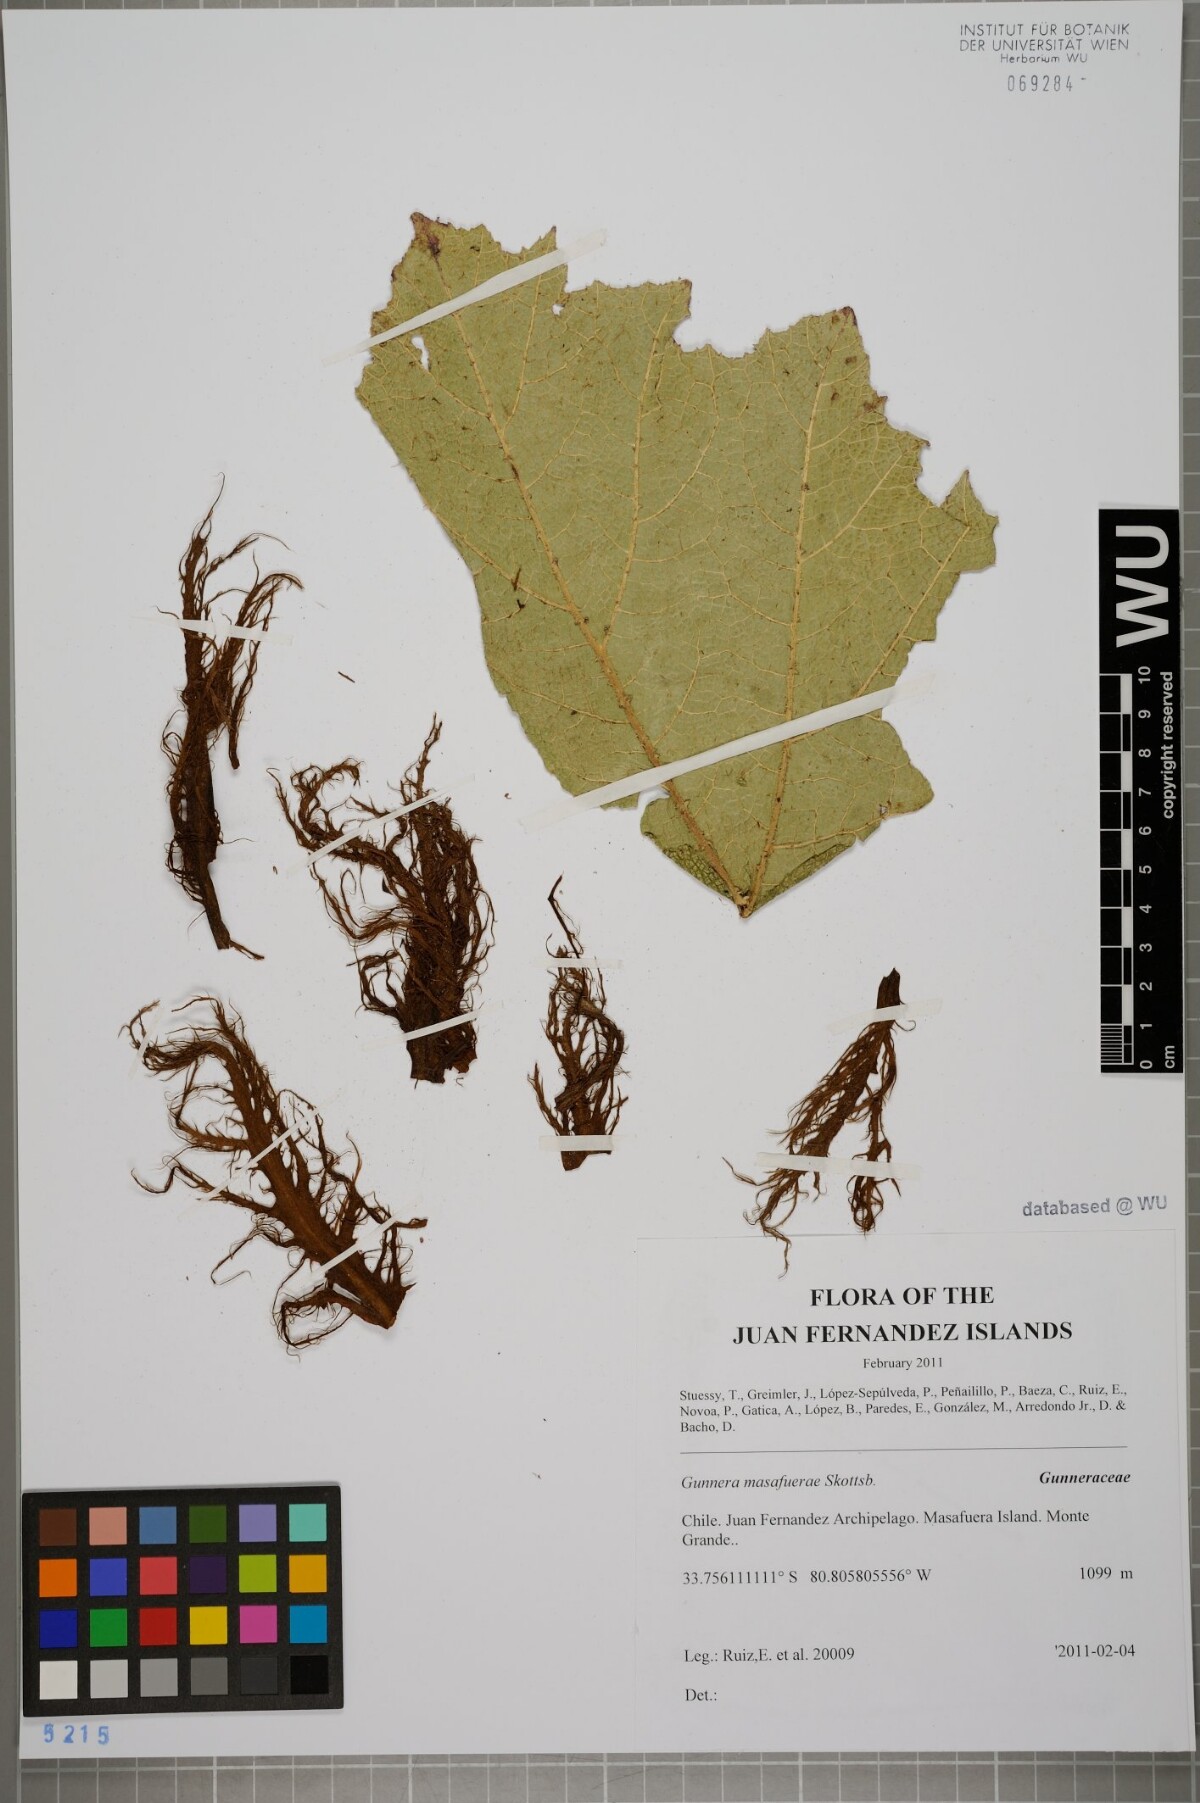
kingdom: Plantae
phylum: Tracheophyta
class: Magnoliopsida
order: Gunnerales
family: Gunneraceae
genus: Gunnera
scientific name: Gunnera masafuerae
